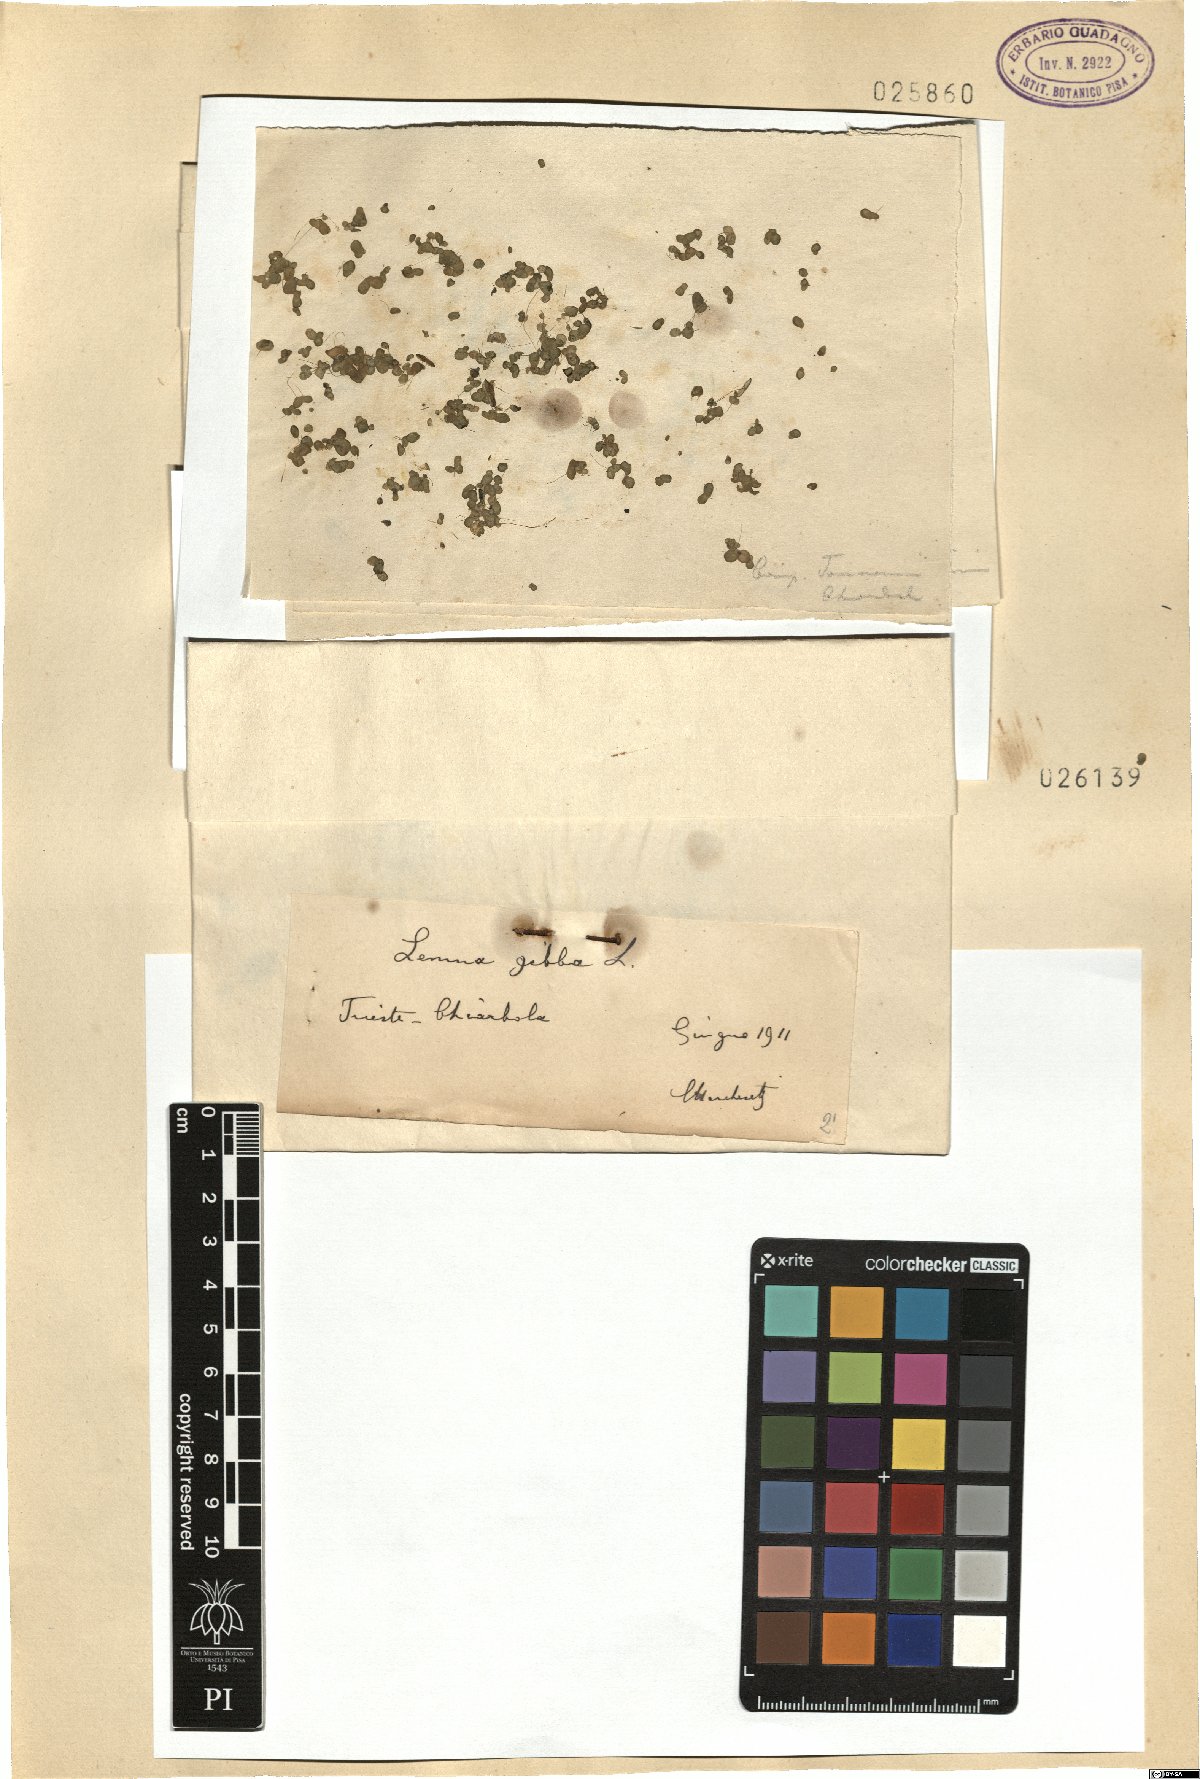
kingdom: Plantae
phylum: Tracheophyta
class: Liliopsida
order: Alismatales
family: Araceae
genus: Lemna
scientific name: Lemna gibba
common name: Fat duckweed
